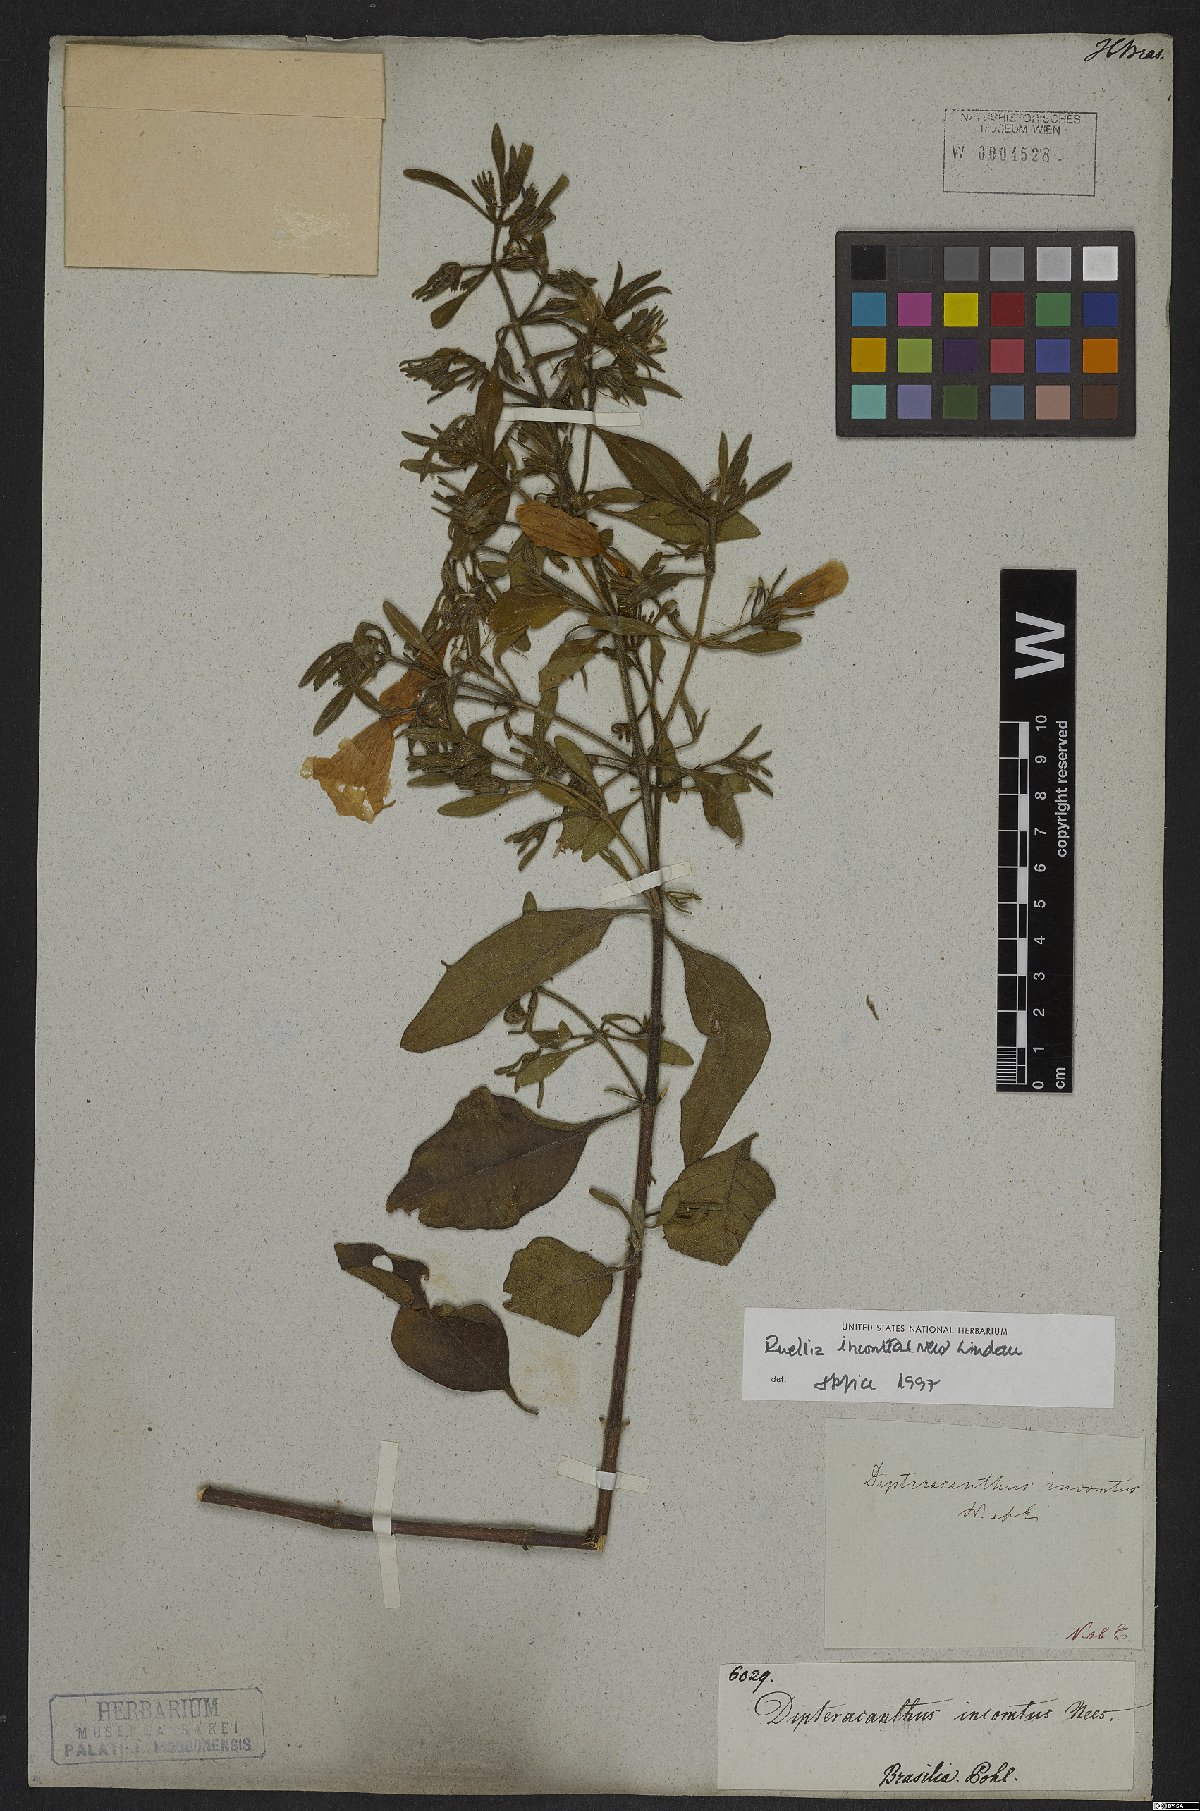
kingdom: Plantae
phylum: Tracheophyta
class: Magnoliopsida
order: Lamiales
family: Acanthaceae
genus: Ruellia
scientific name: Ruellia incomta
